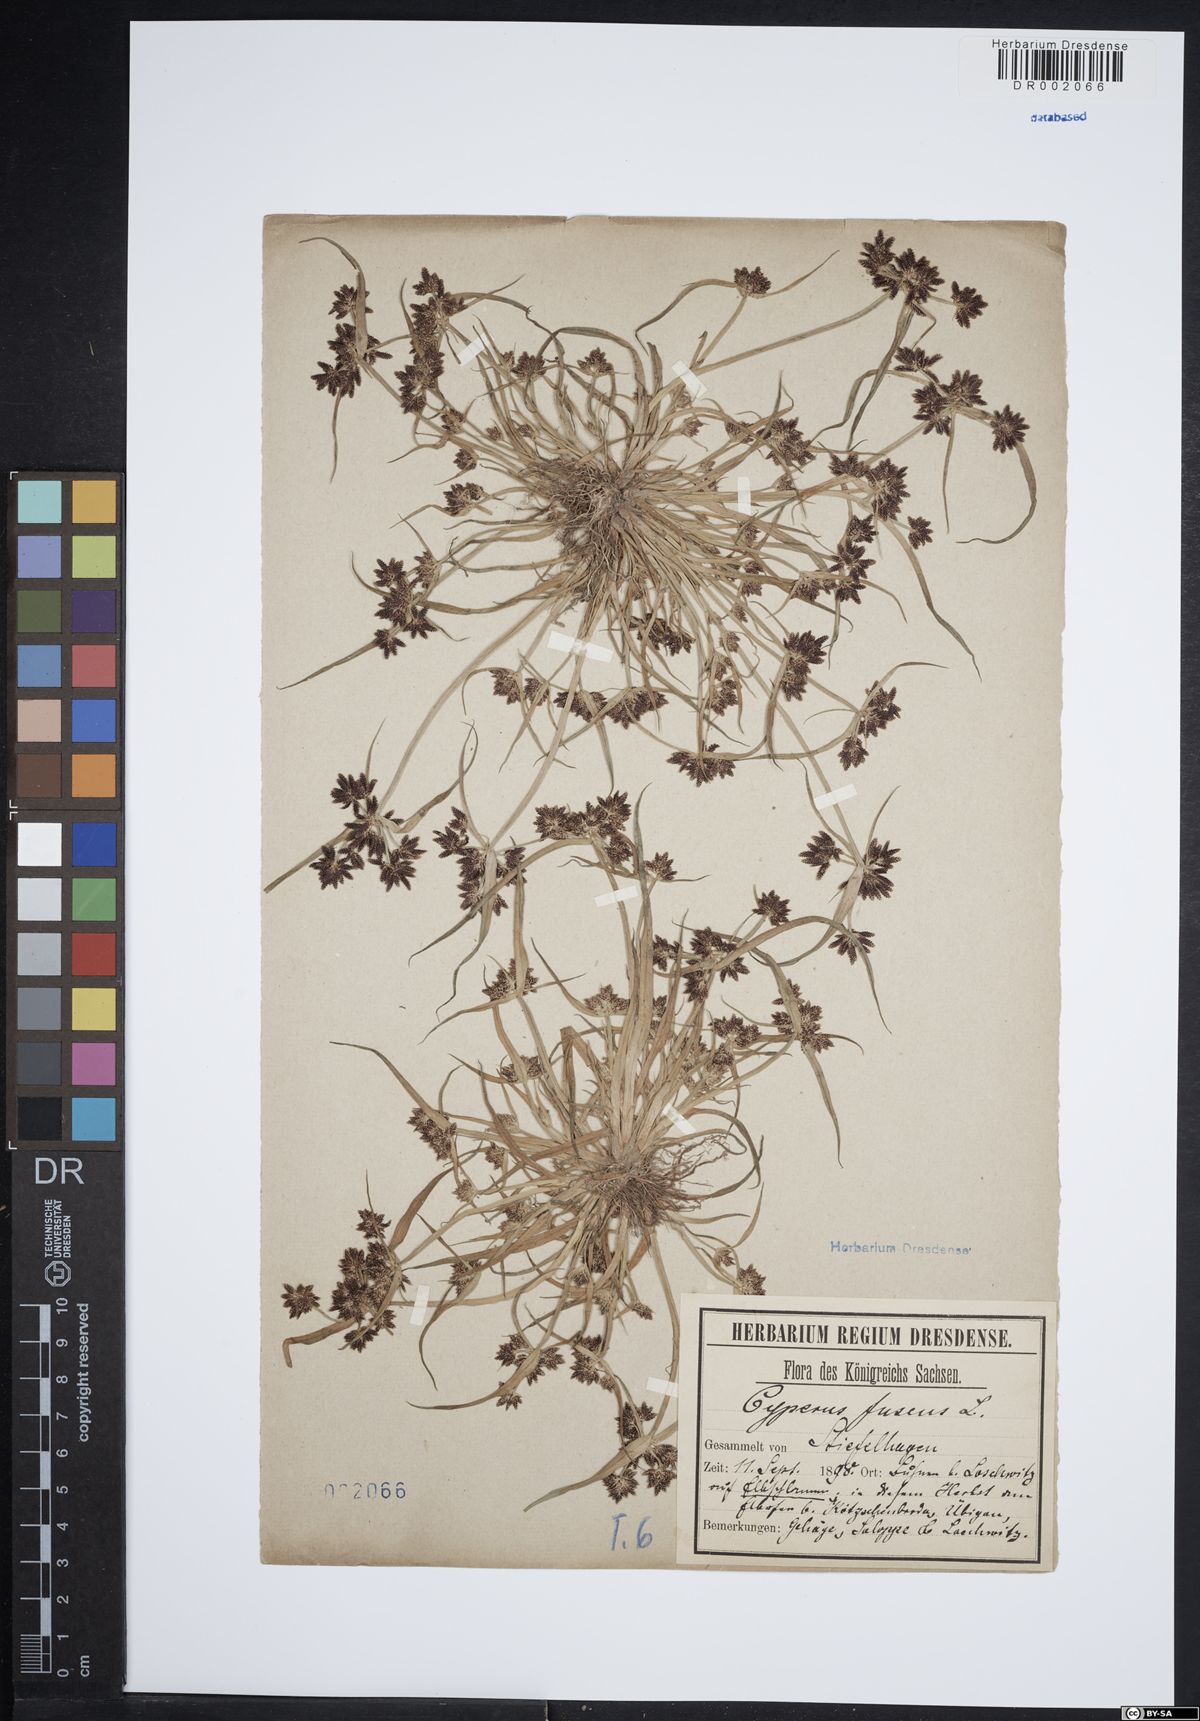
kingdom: Plantae
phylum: Tracheophyta
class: Liliopsida
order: Poales
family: Cyperaceae
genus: Cyperus
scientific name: Cyperus fuscus
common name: Brown galingale
